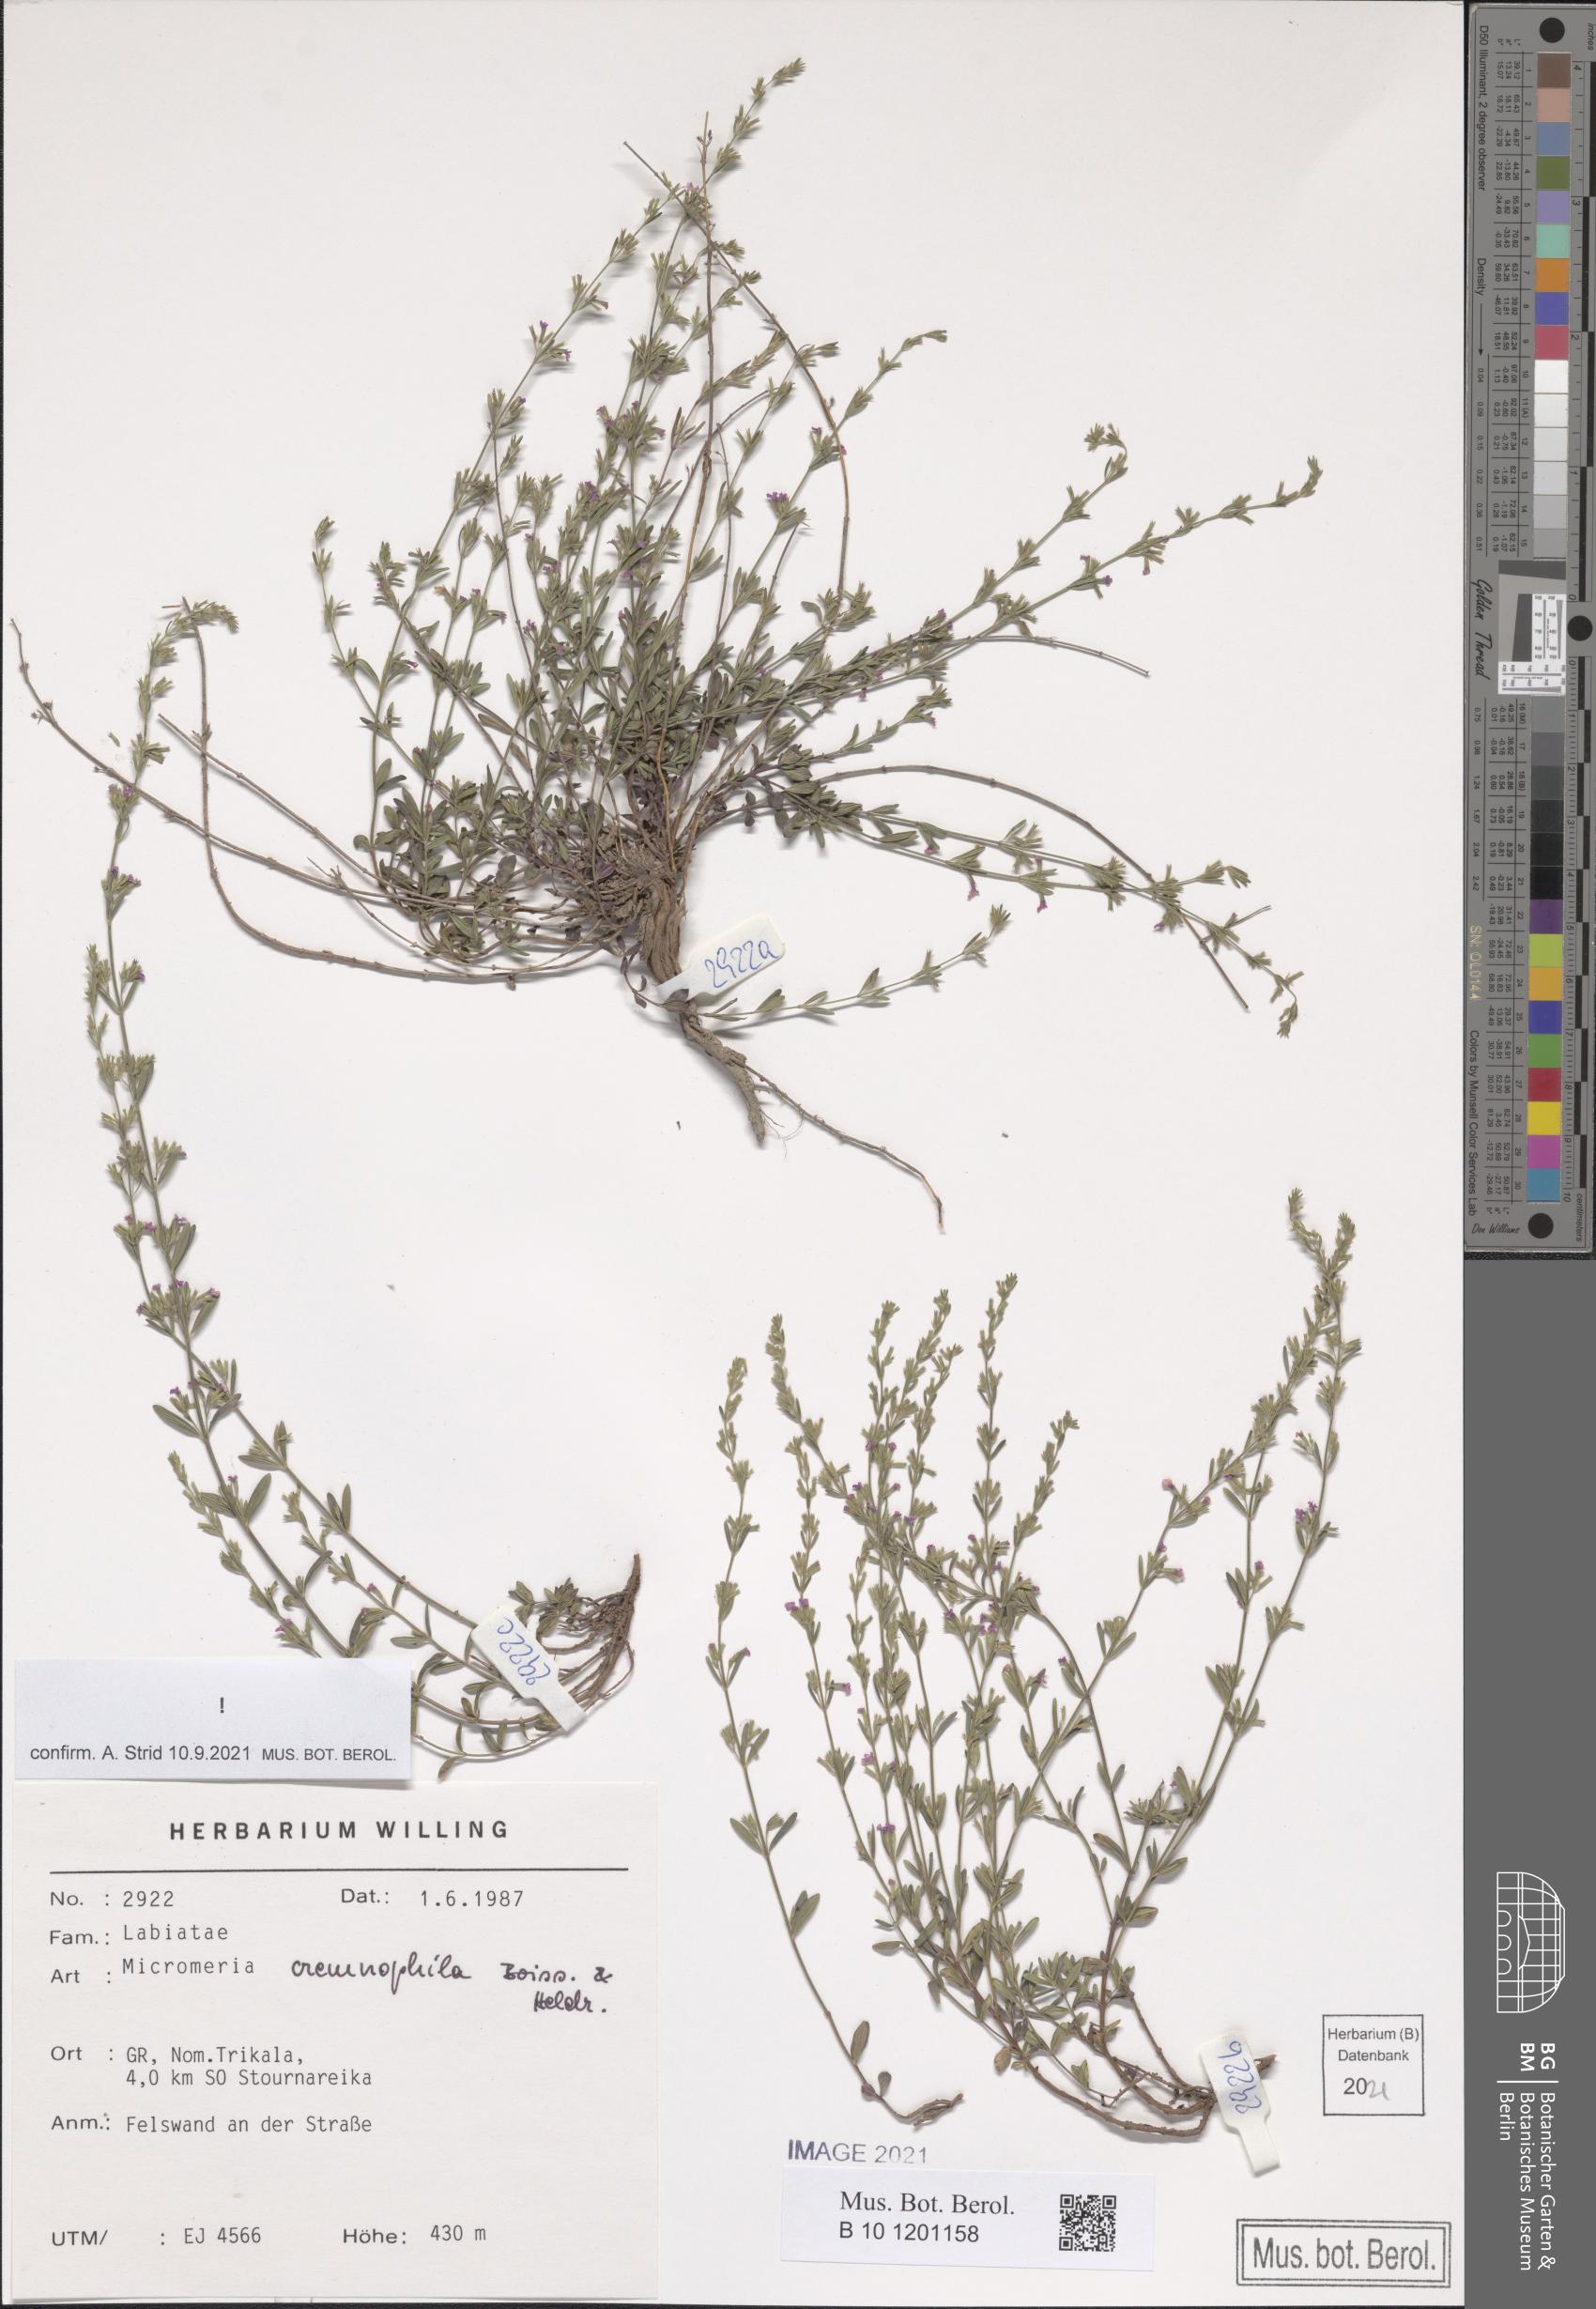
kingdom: Plantae
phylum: Tracheophyta
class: Magnoliopsida
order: Lamiales
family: Lamiaceae
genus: Micromeria
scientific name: Micromeria cremnophila
